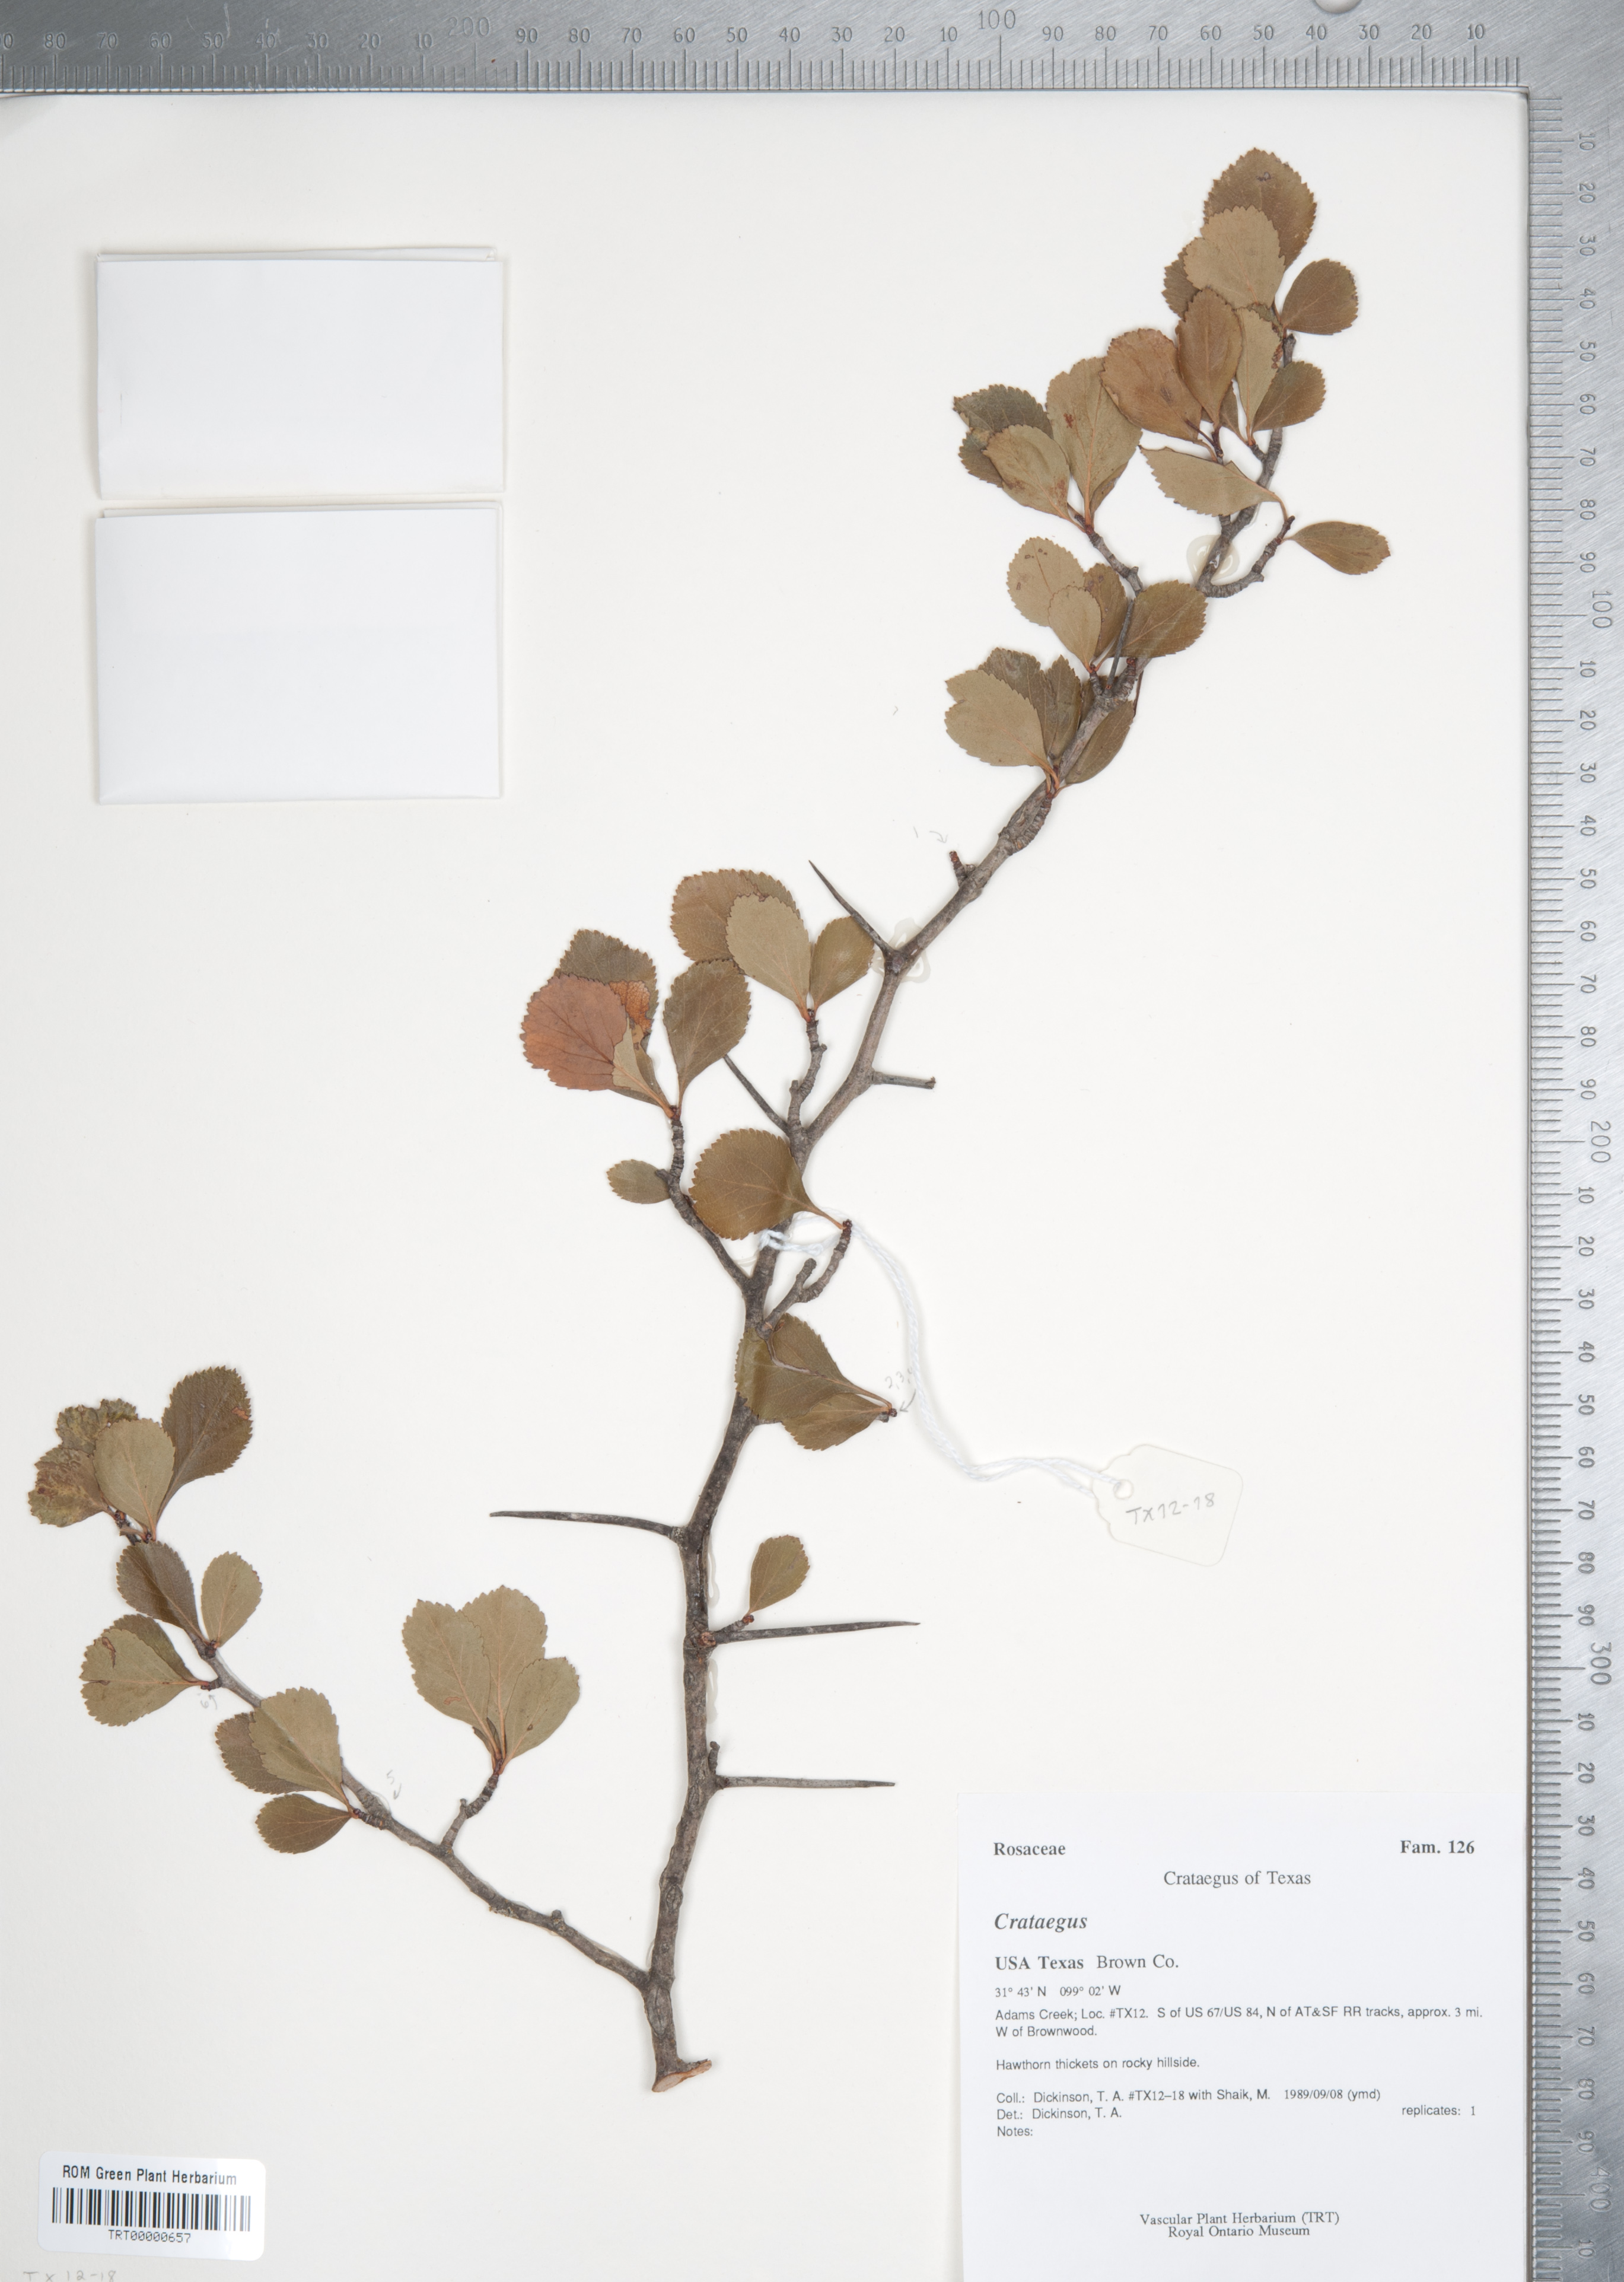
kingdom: Plantae
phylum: Tracheophyta
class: Magnoliopsida
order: Rosales
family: Rosaceae
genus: Crataegus
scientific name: Crataegus crus-galli
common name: Cockspurthorn
